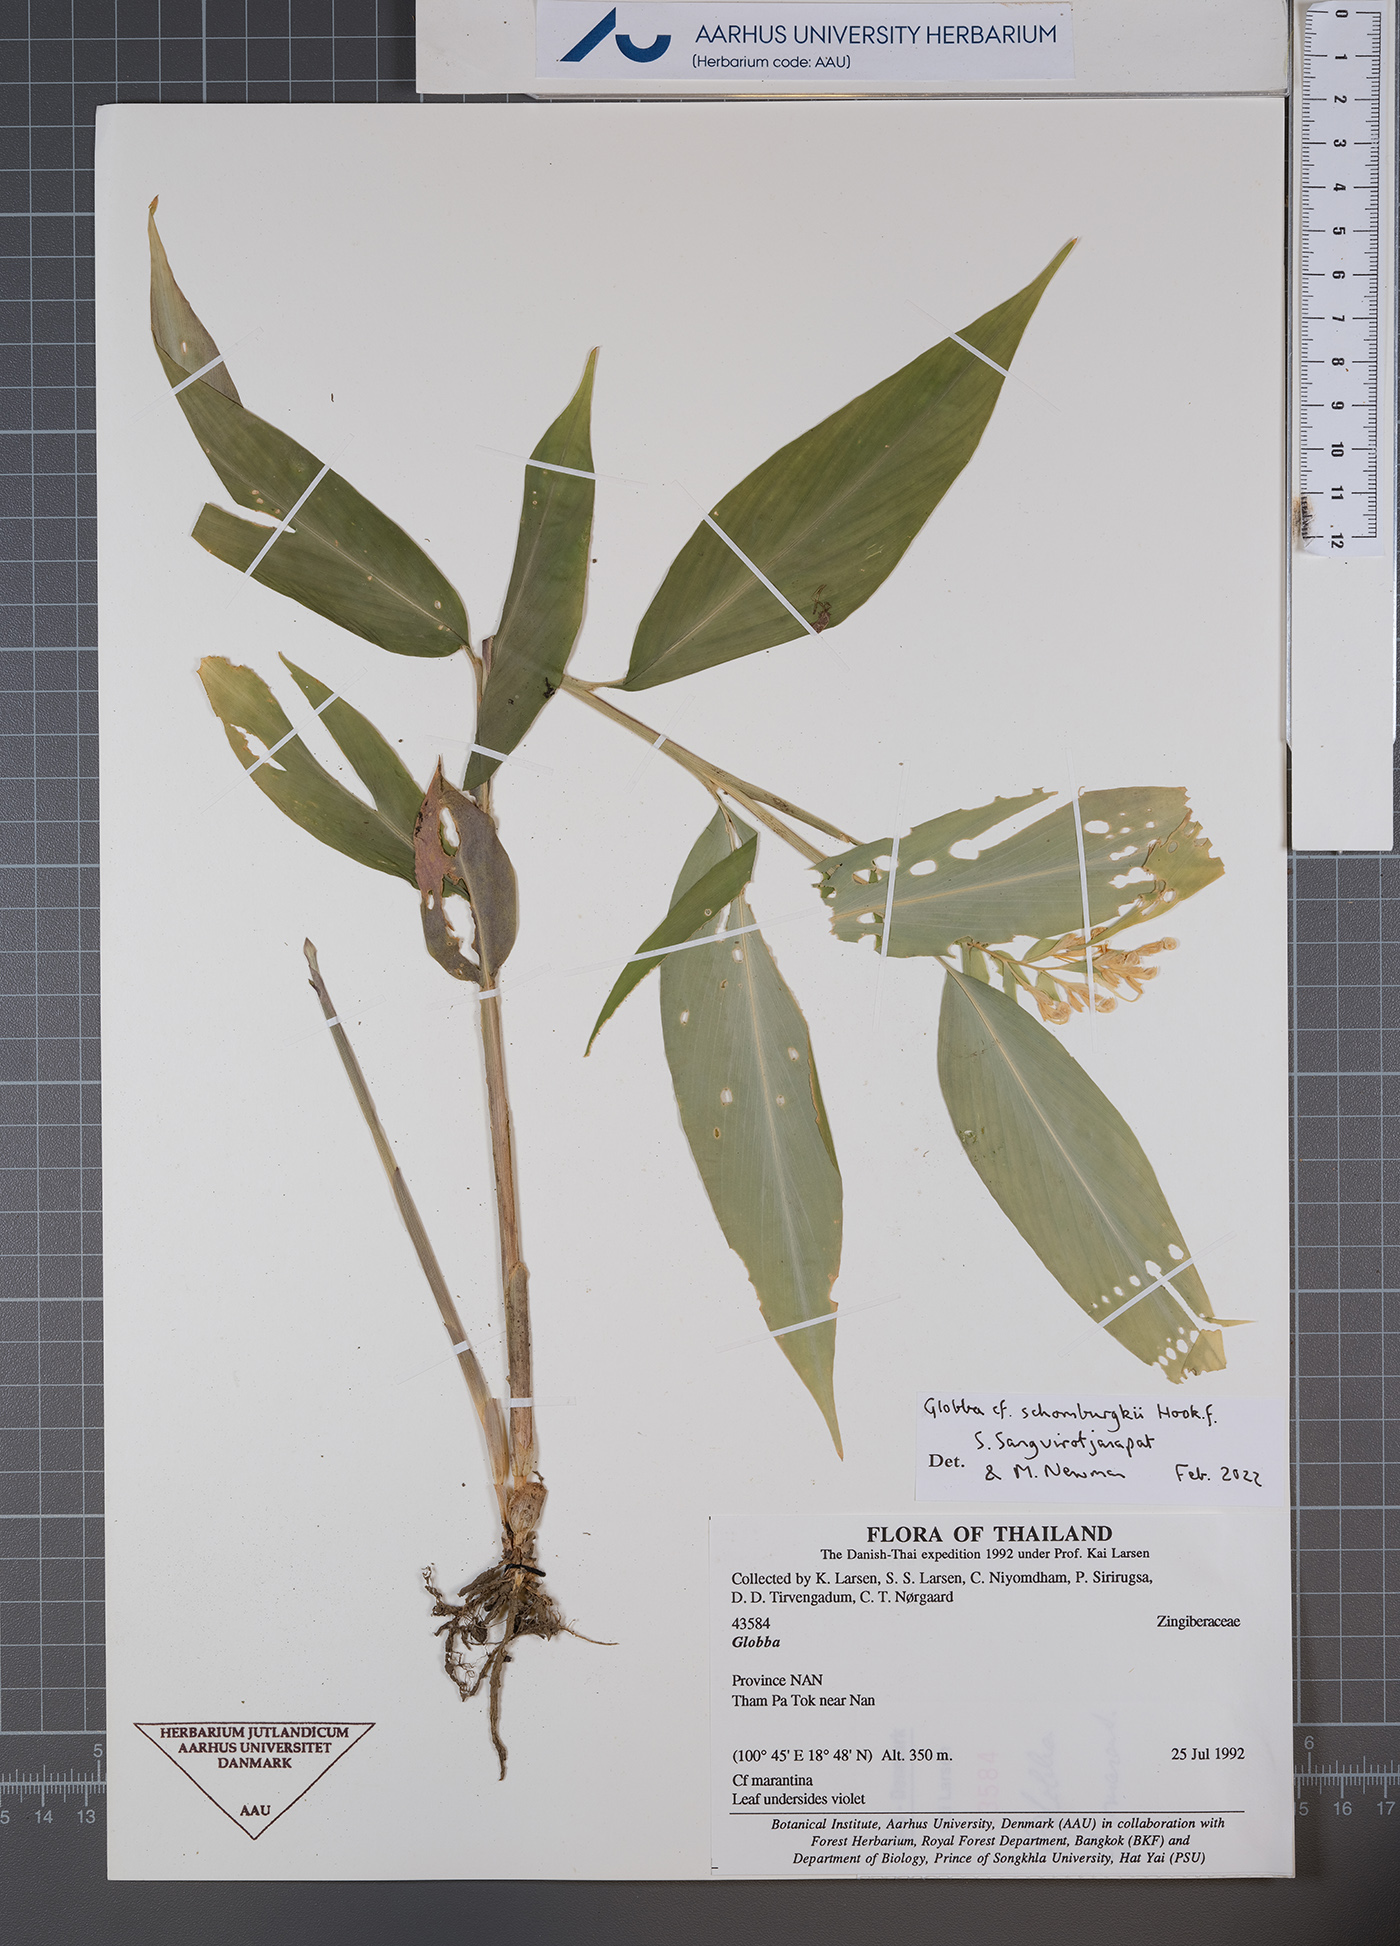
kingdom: Plantae
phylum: Tracheophyta
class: Liliopsida
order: Zingiberales
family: Zingiberaceae
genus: Globba
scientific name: Globba schomburgkii
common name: Dancing girl ginger
